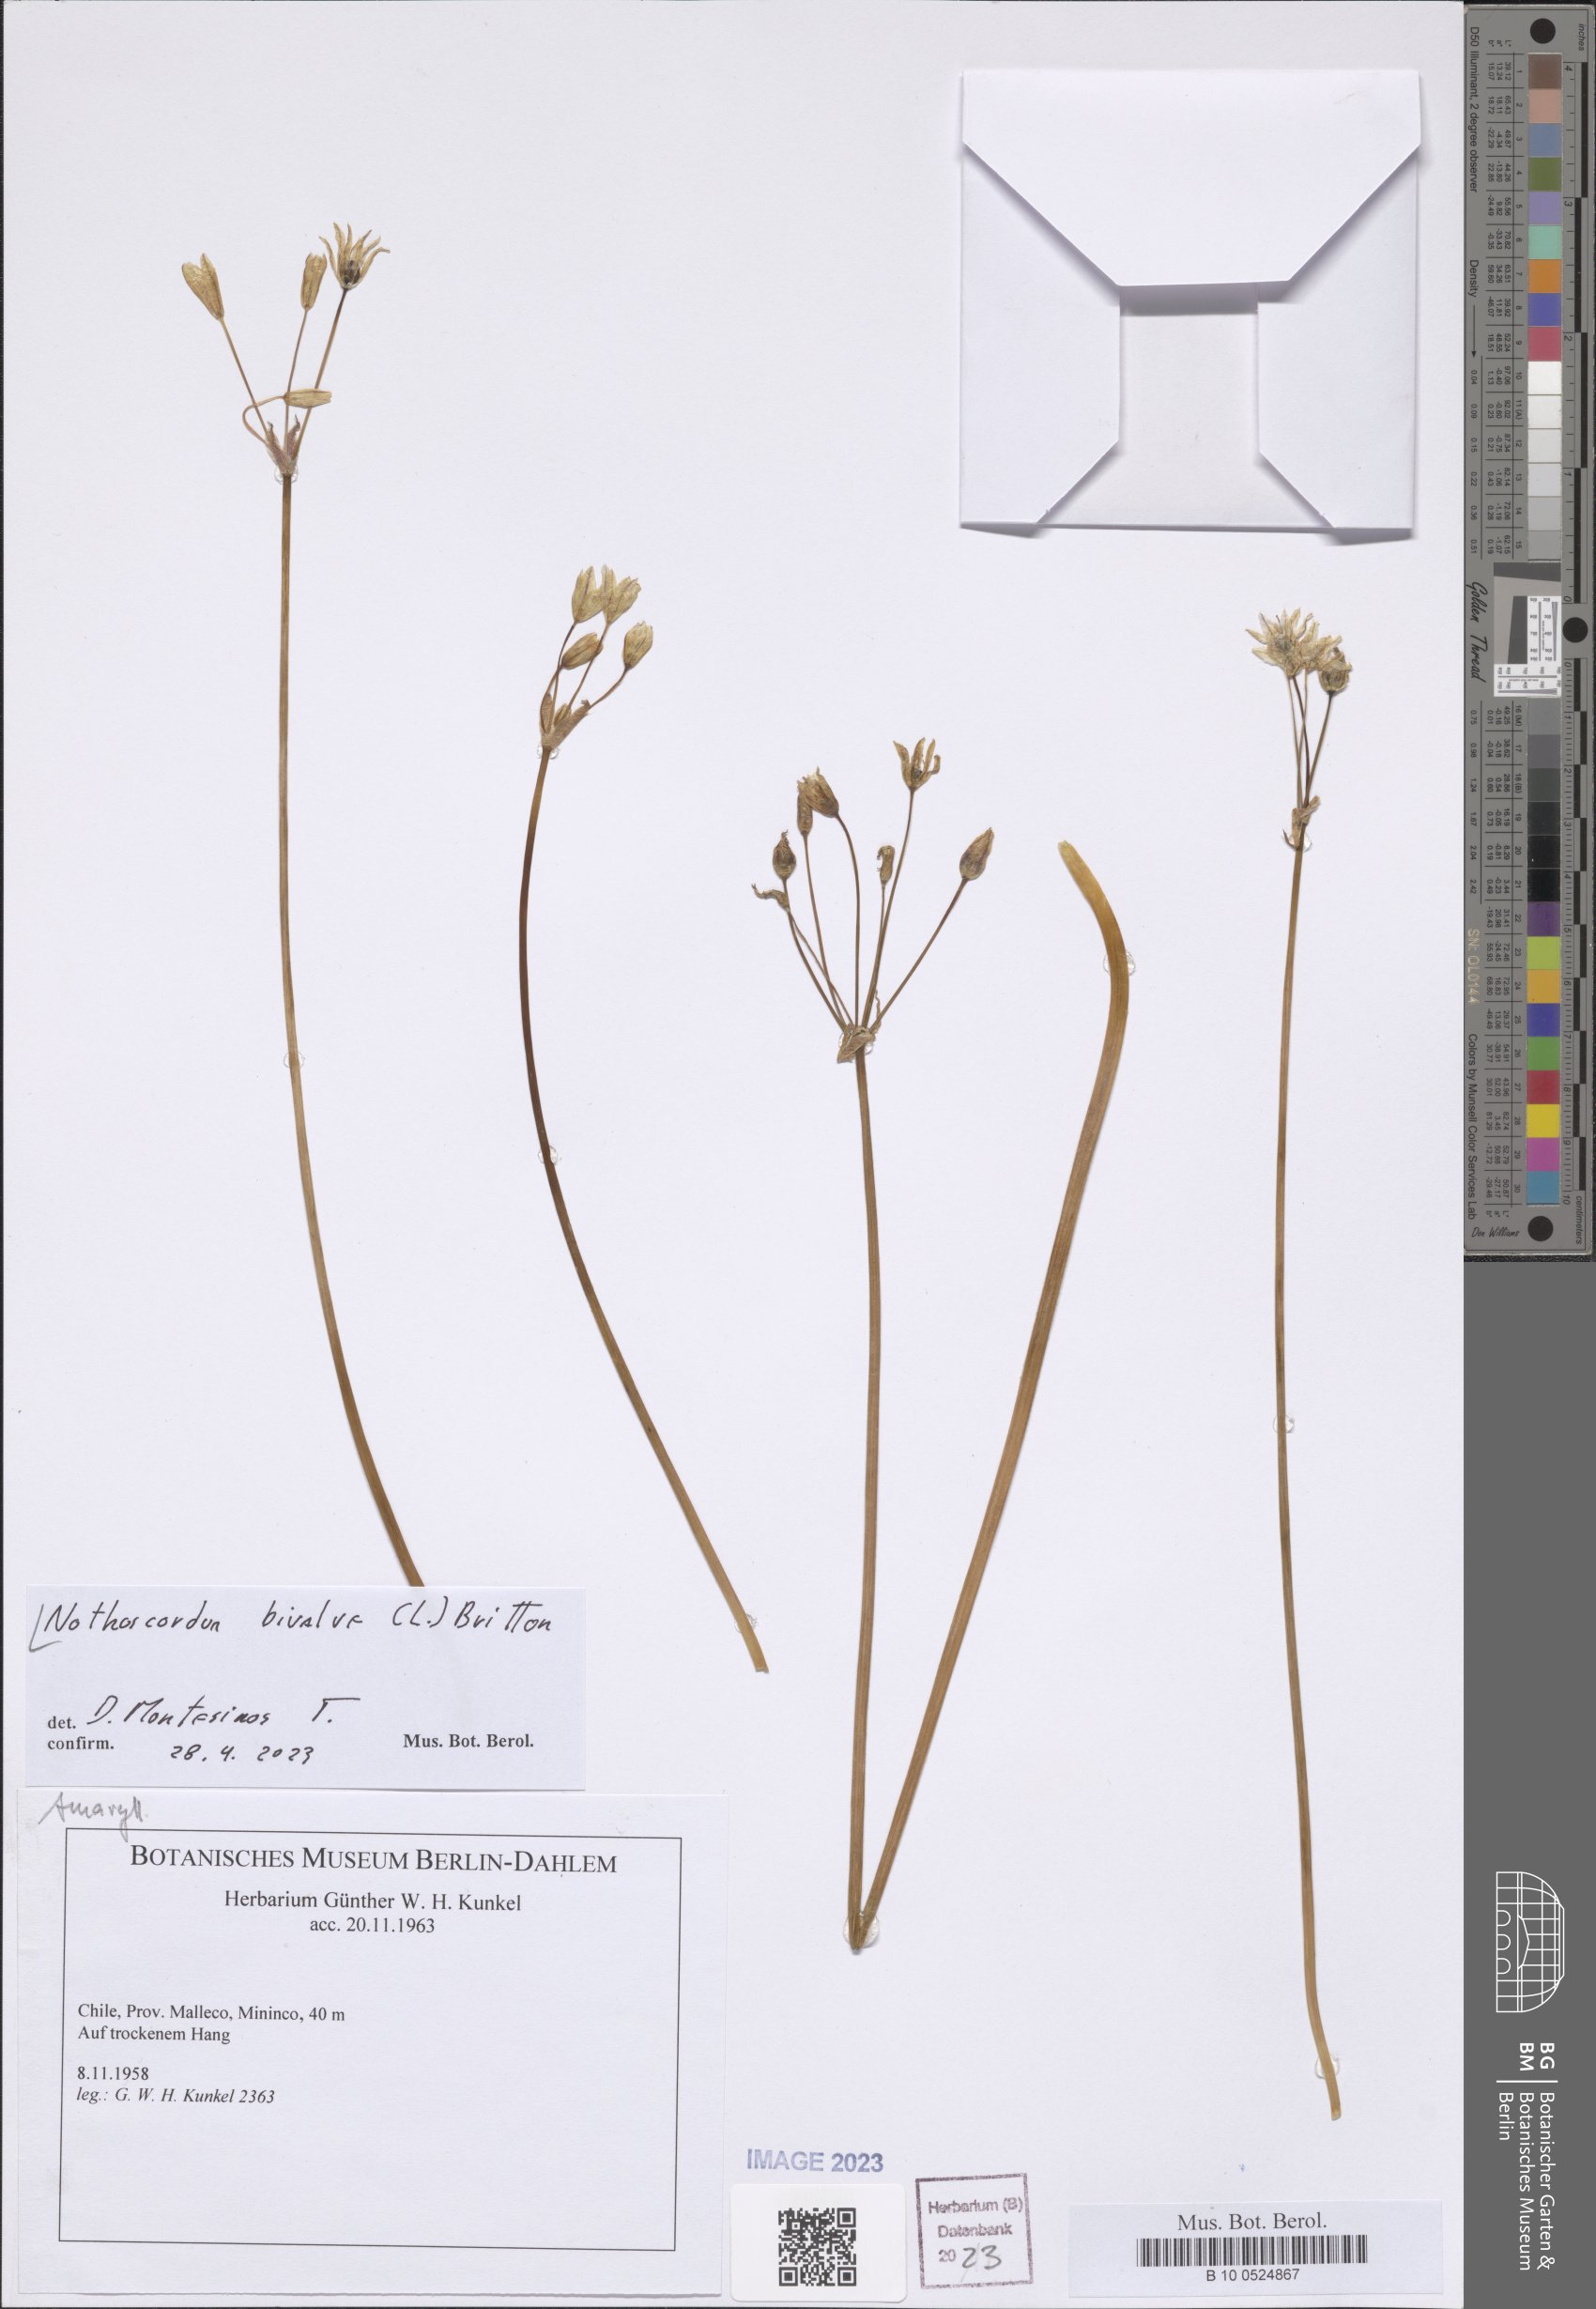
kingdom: Plantae
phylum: Tracheophyta
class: Liliopsida
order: Asparagales
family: Amaryllidaceae
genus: Nothoscordum
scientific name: Nothoscordum bivalve
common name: Crow-poison
